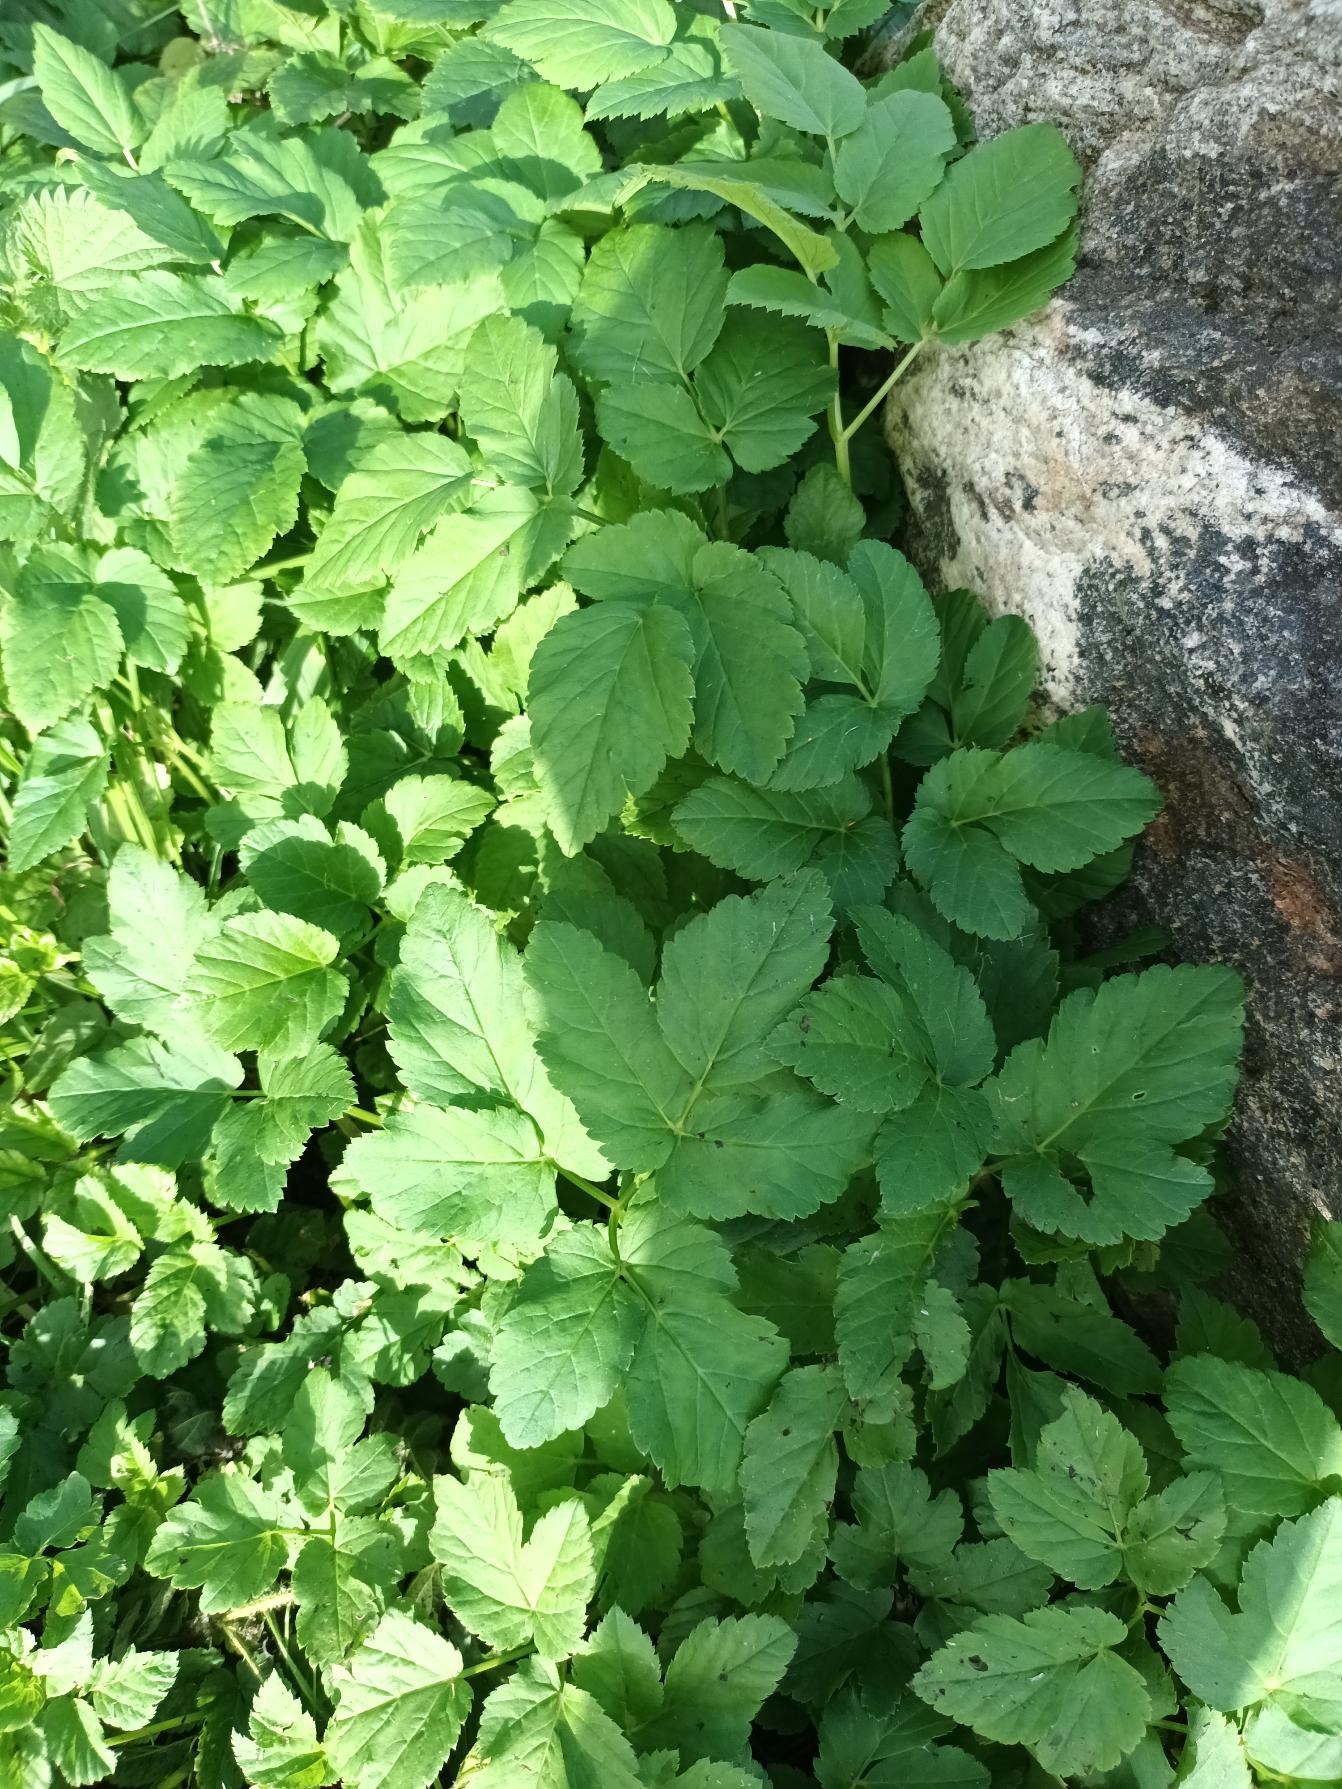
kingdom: Plantae
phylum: Tracheophyta
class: Magnoliopsida
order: Apiales
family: Apiaceae
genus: Aegopodium
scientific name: Aegopodium podagraria
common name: Skvalderkål
